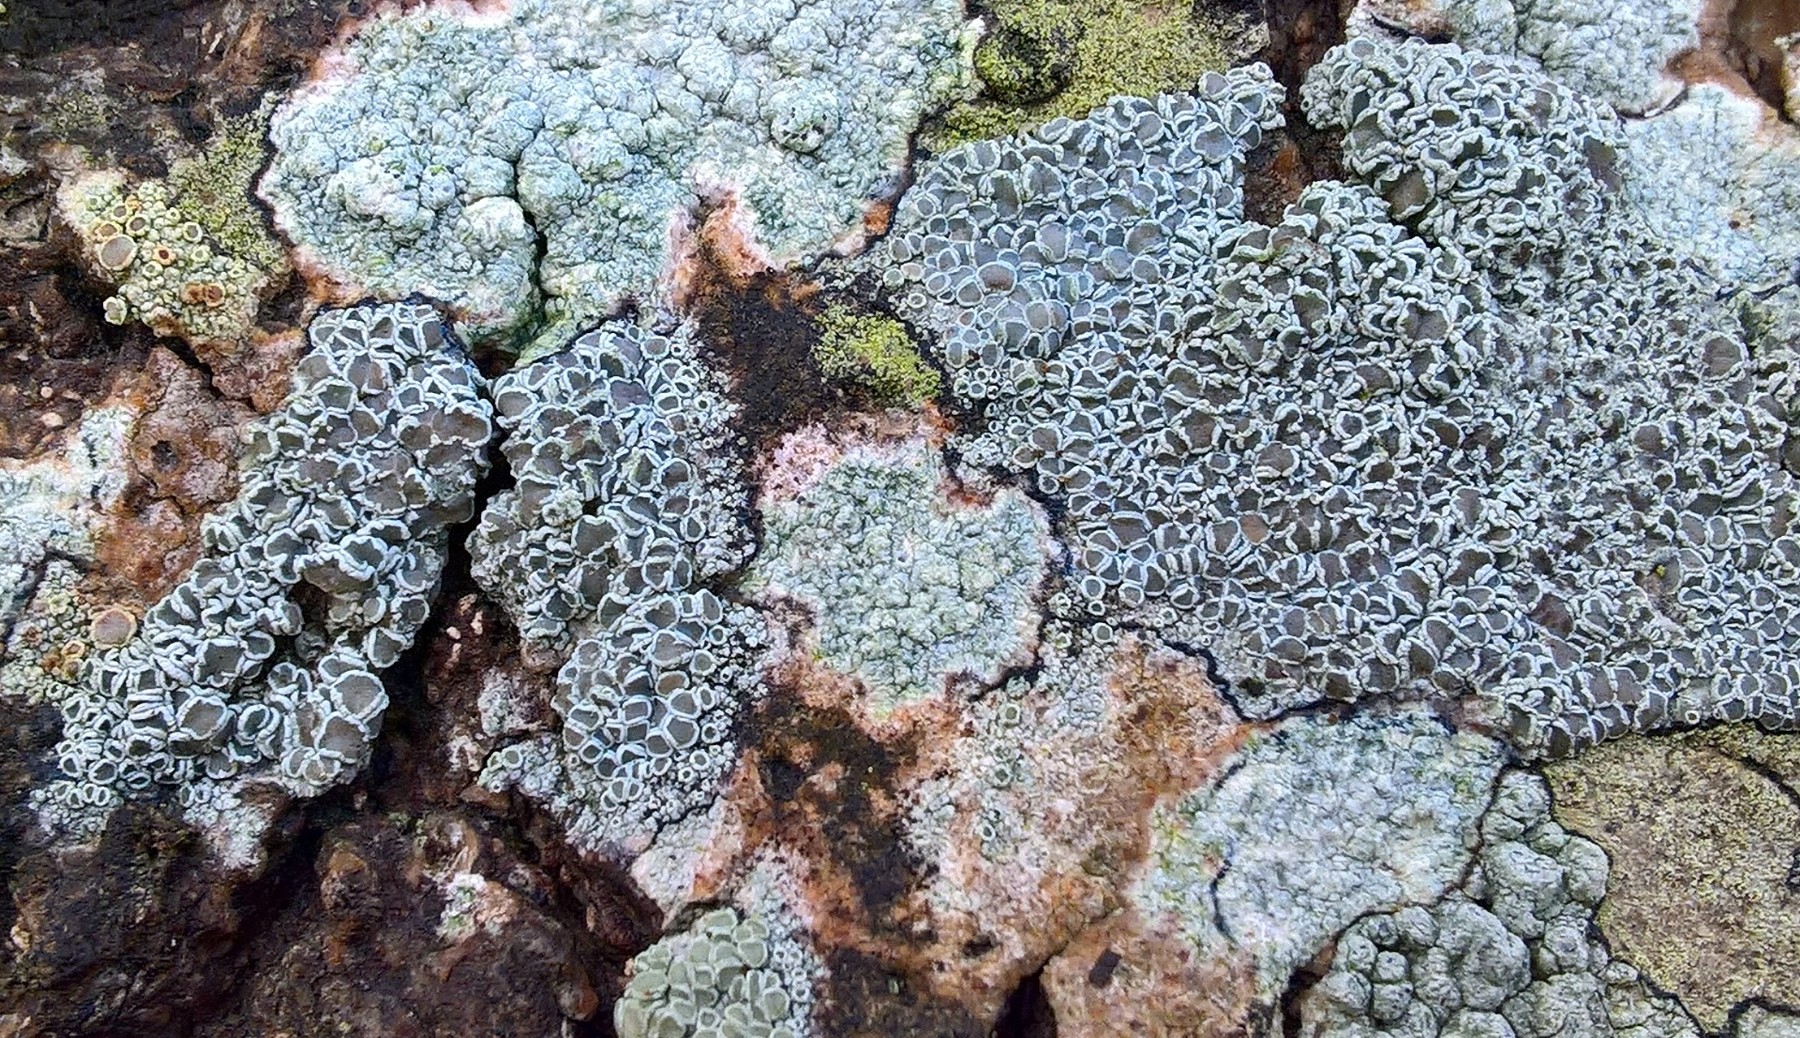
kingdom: Fungi
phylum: Ascomycota
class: Lecanoromycetes
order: Lecanorales
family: Lecanoraceae
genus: Lecanora
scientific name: Lecanora chlarotera
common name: brun kantskivelav
